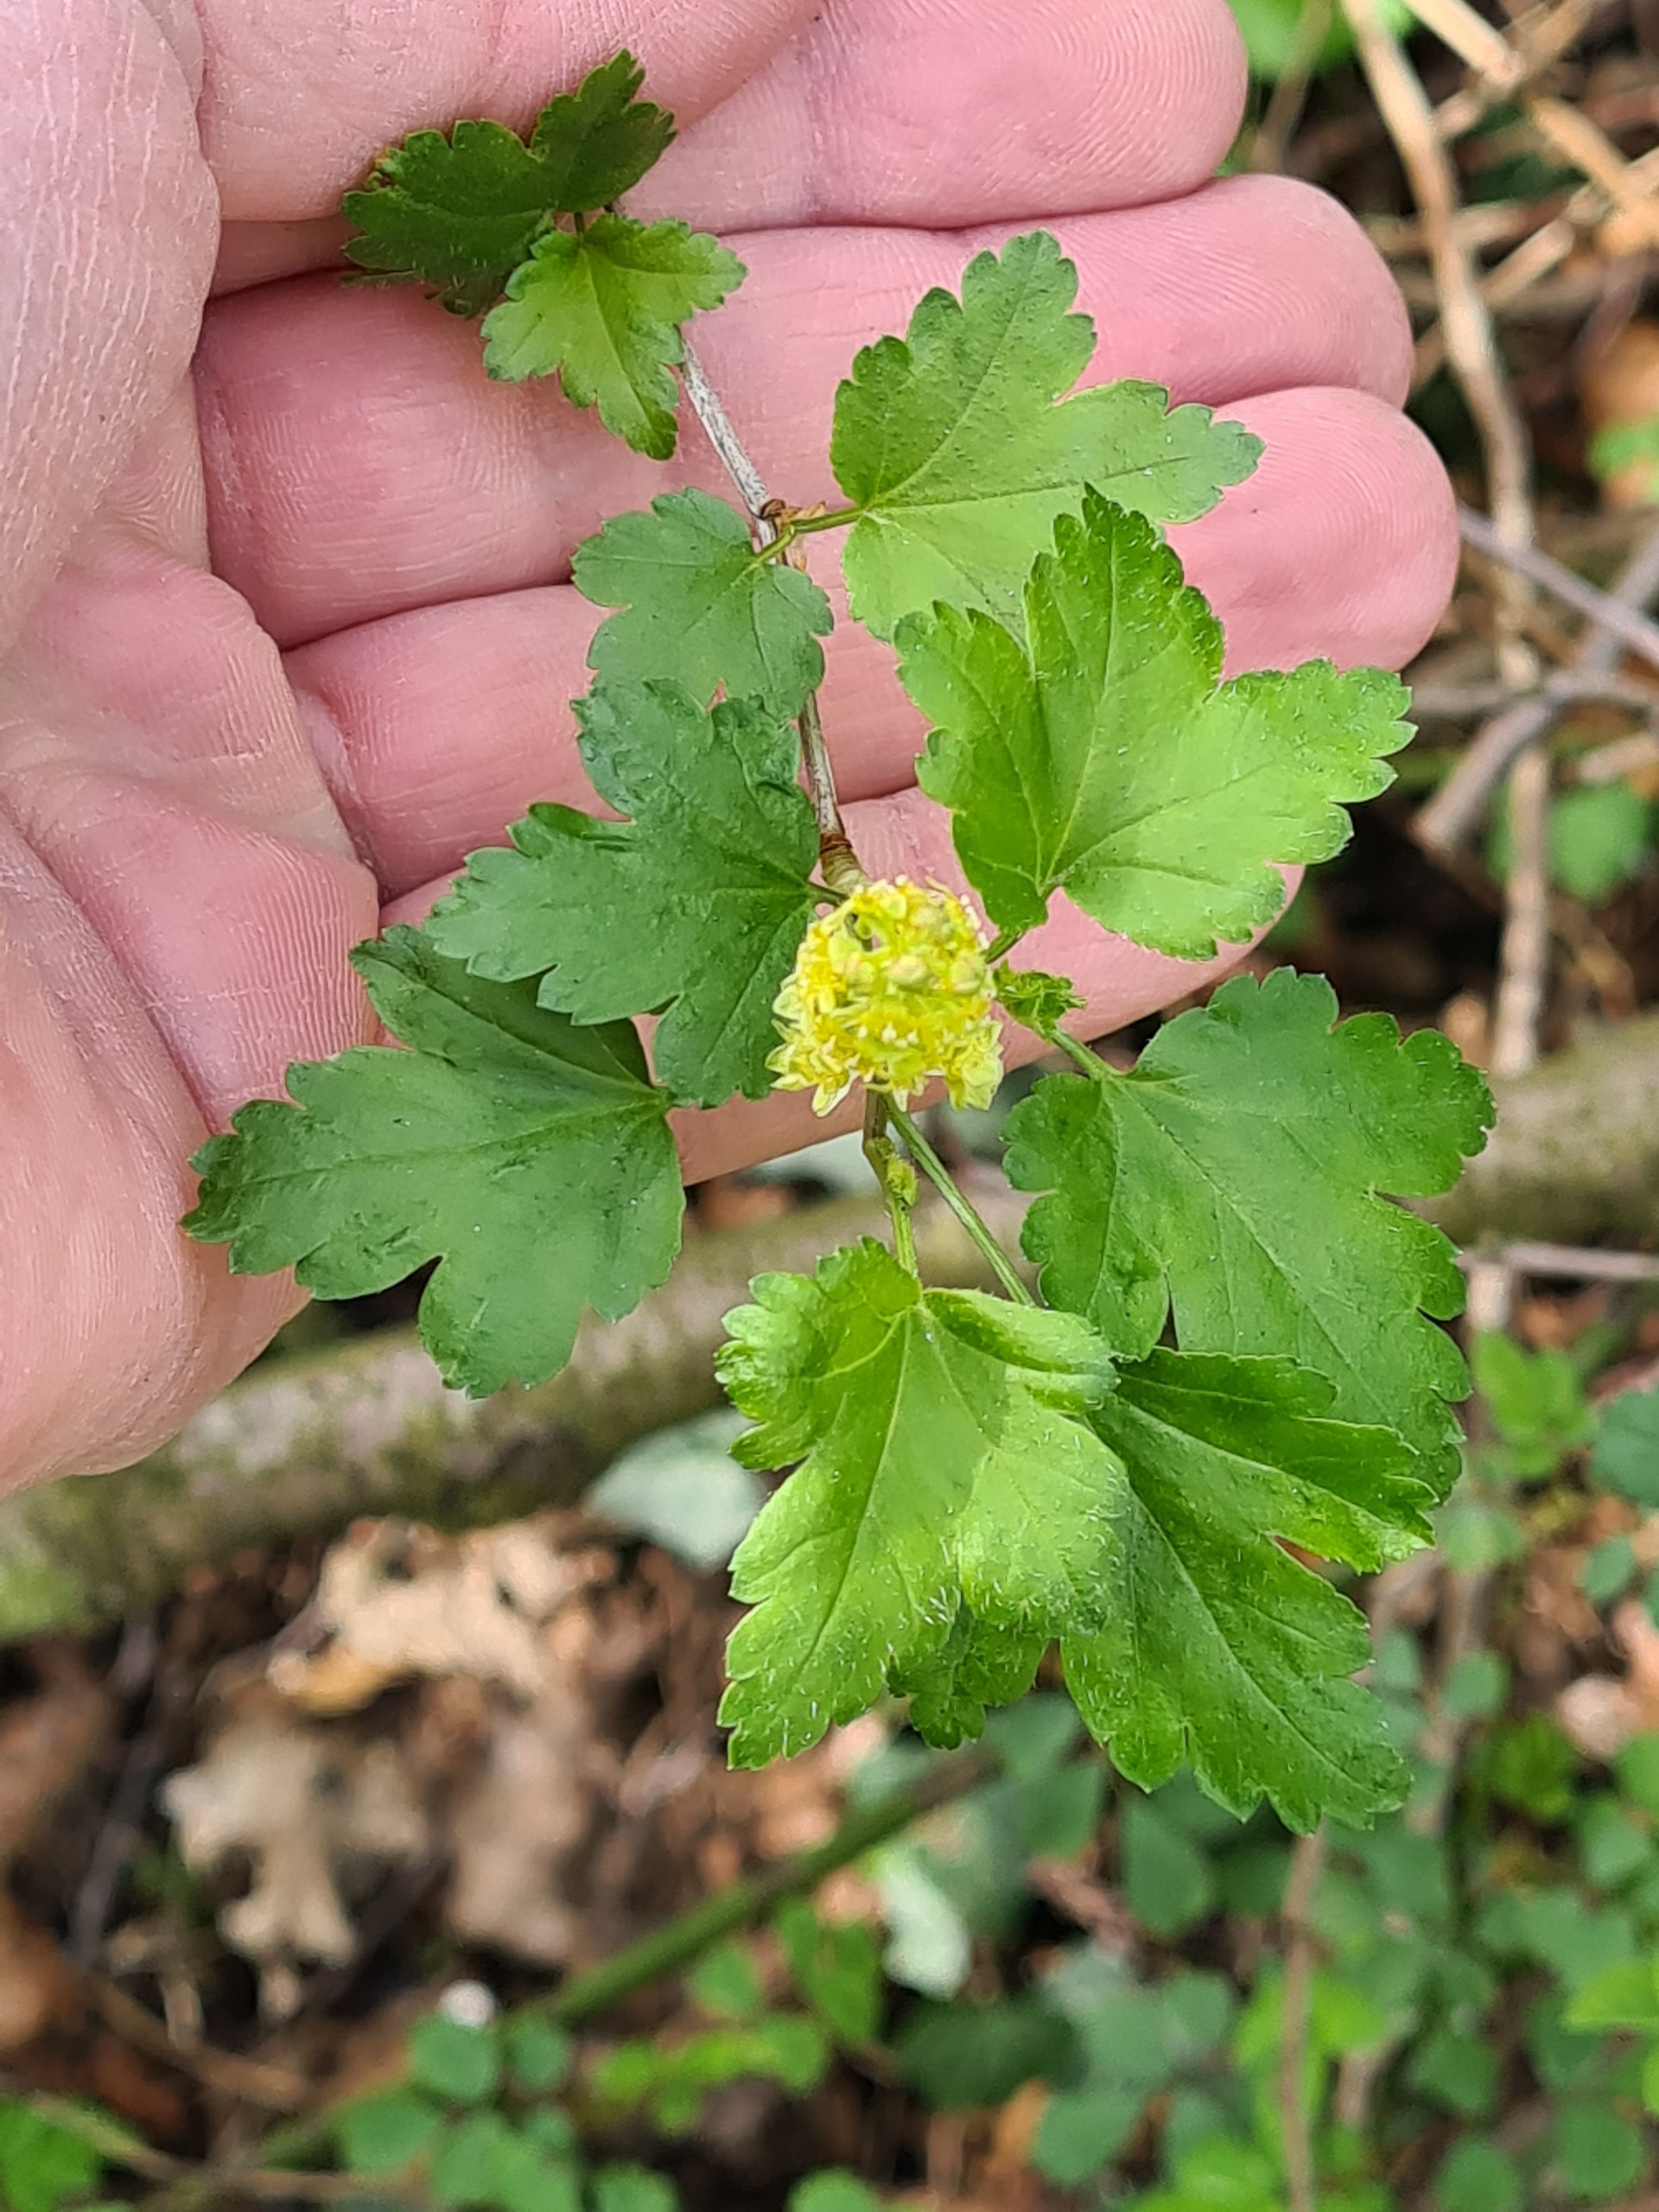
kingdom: Plantae
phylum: Tracheophyta
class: Magnoliopsida
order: Saxifragales
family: Grossulariaceae
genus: Ribes
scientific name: Ribes alpinum
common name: Fjeld-ribs
